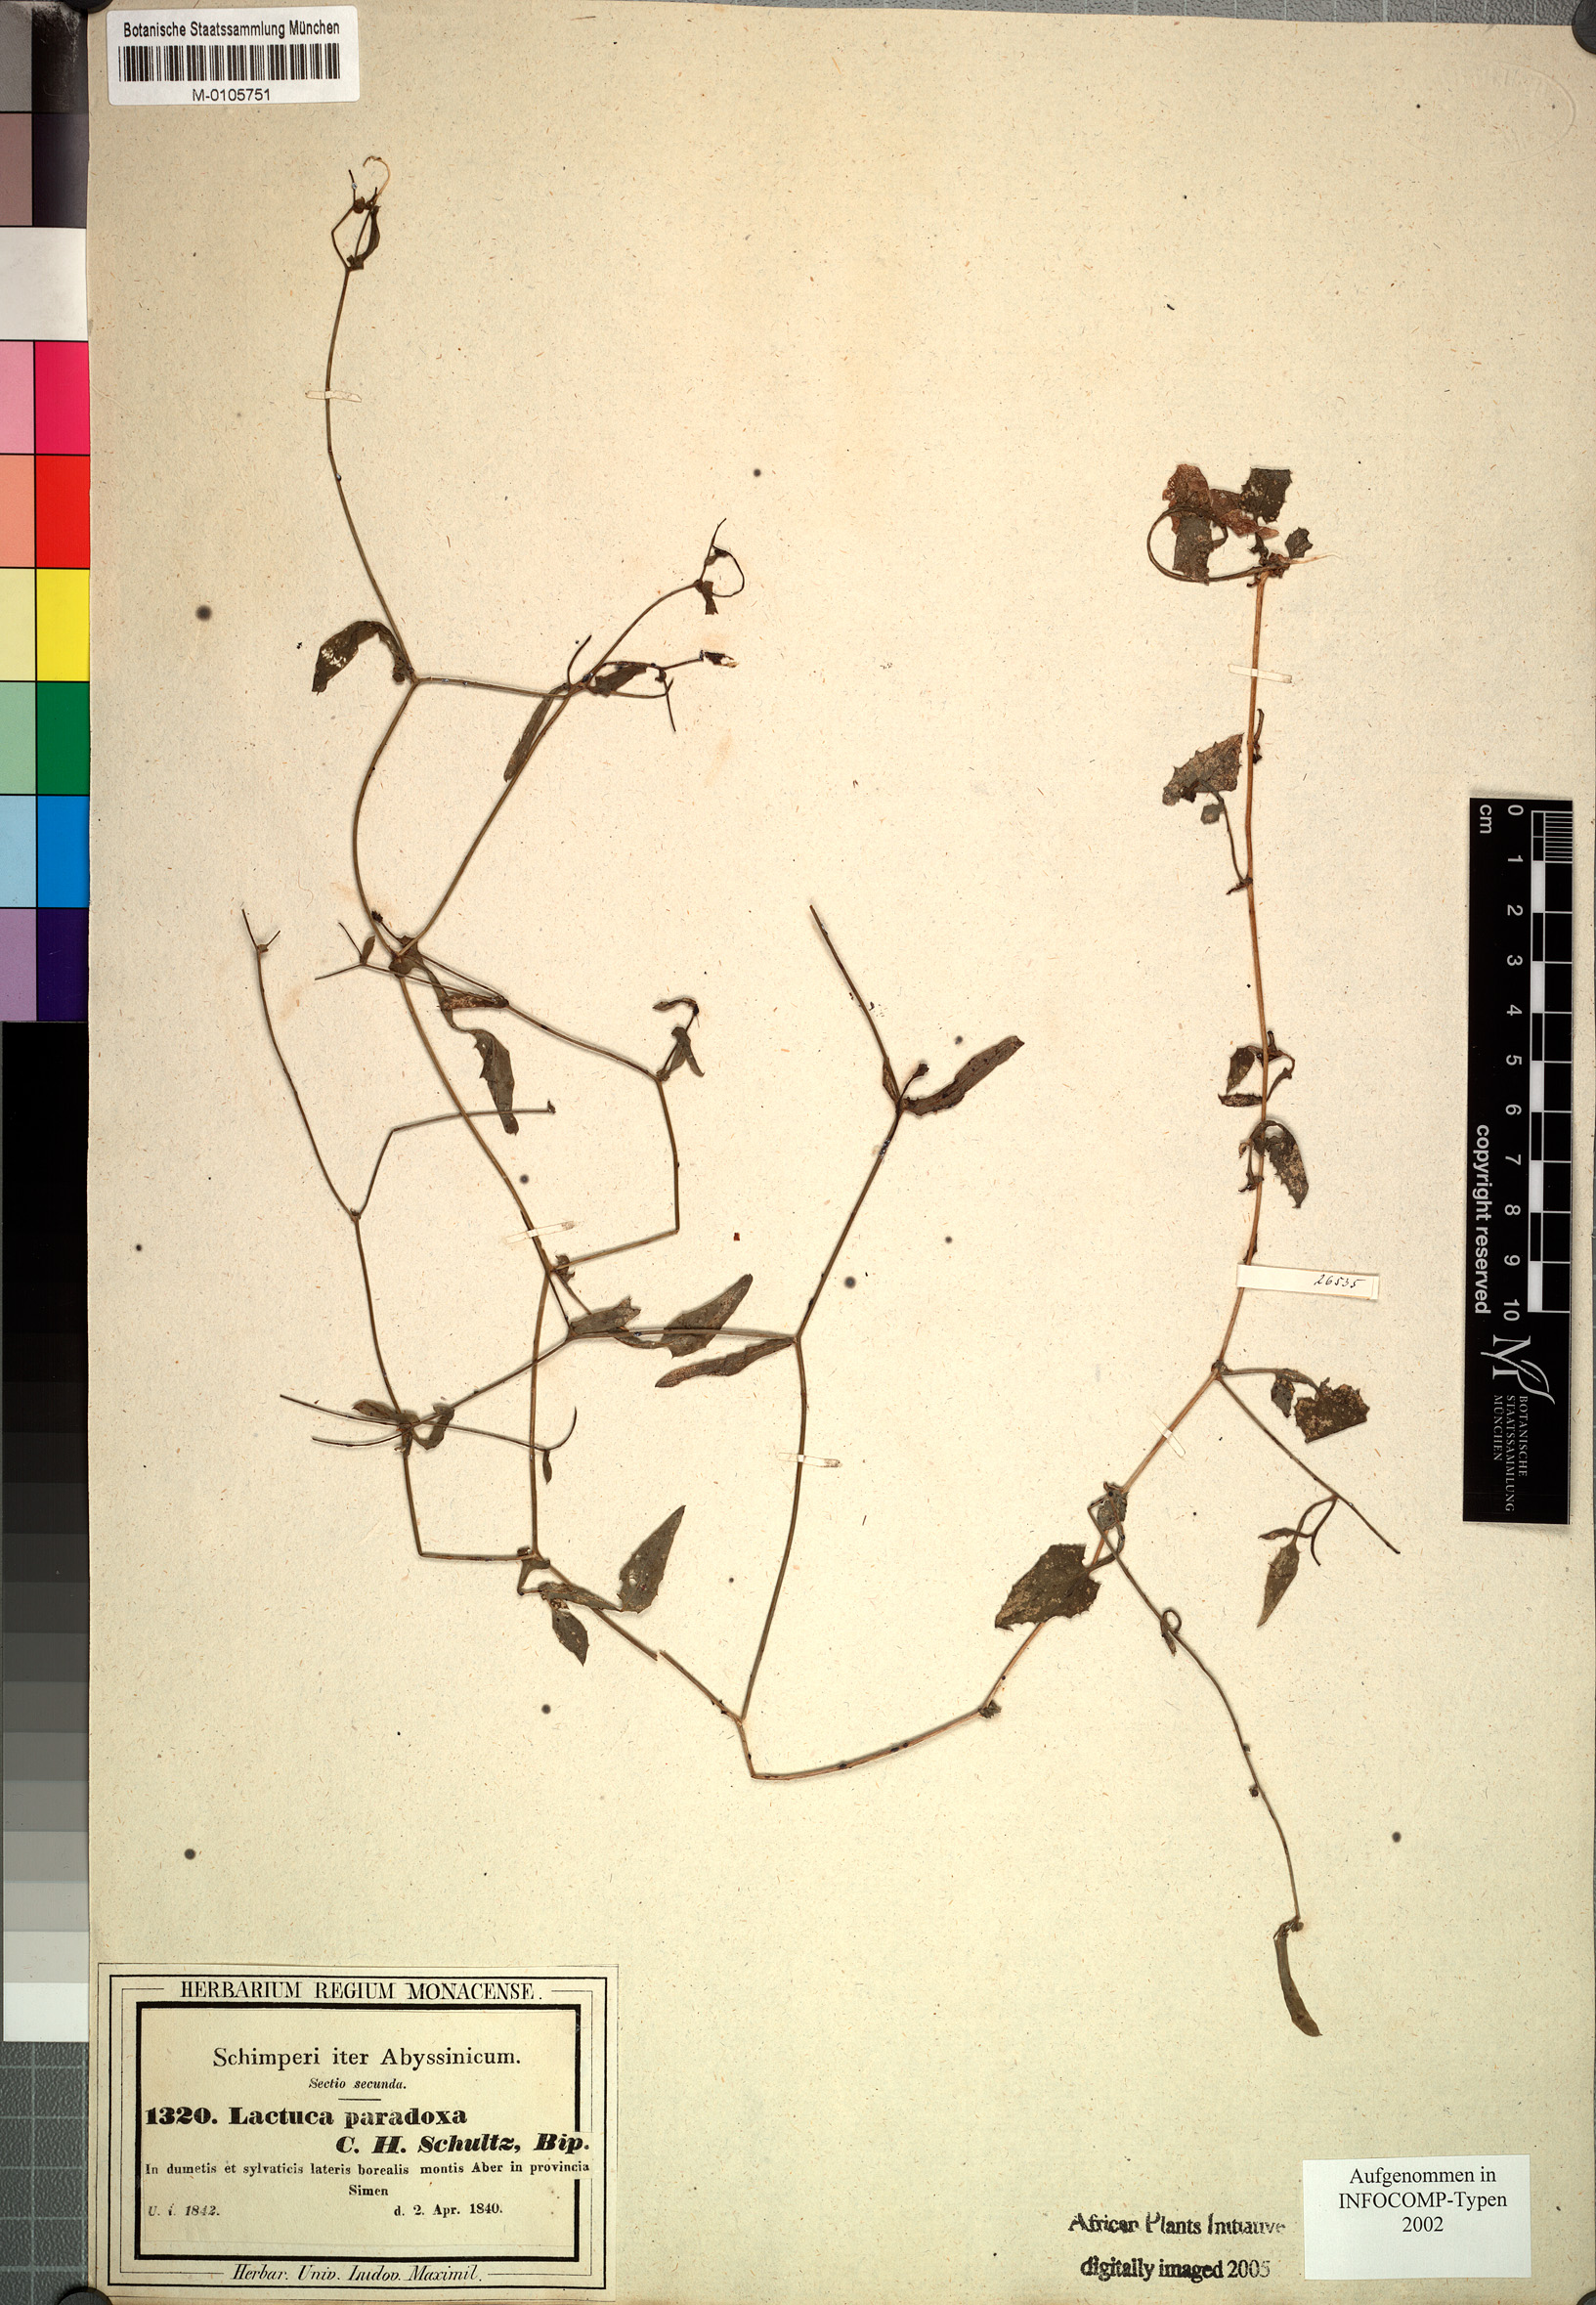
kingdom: Plantae
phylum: Tracheophyta
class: Magnoliopsida
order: Asterales
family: Asteraceae
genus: Lactuca
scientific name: Lactuca paradoxa
